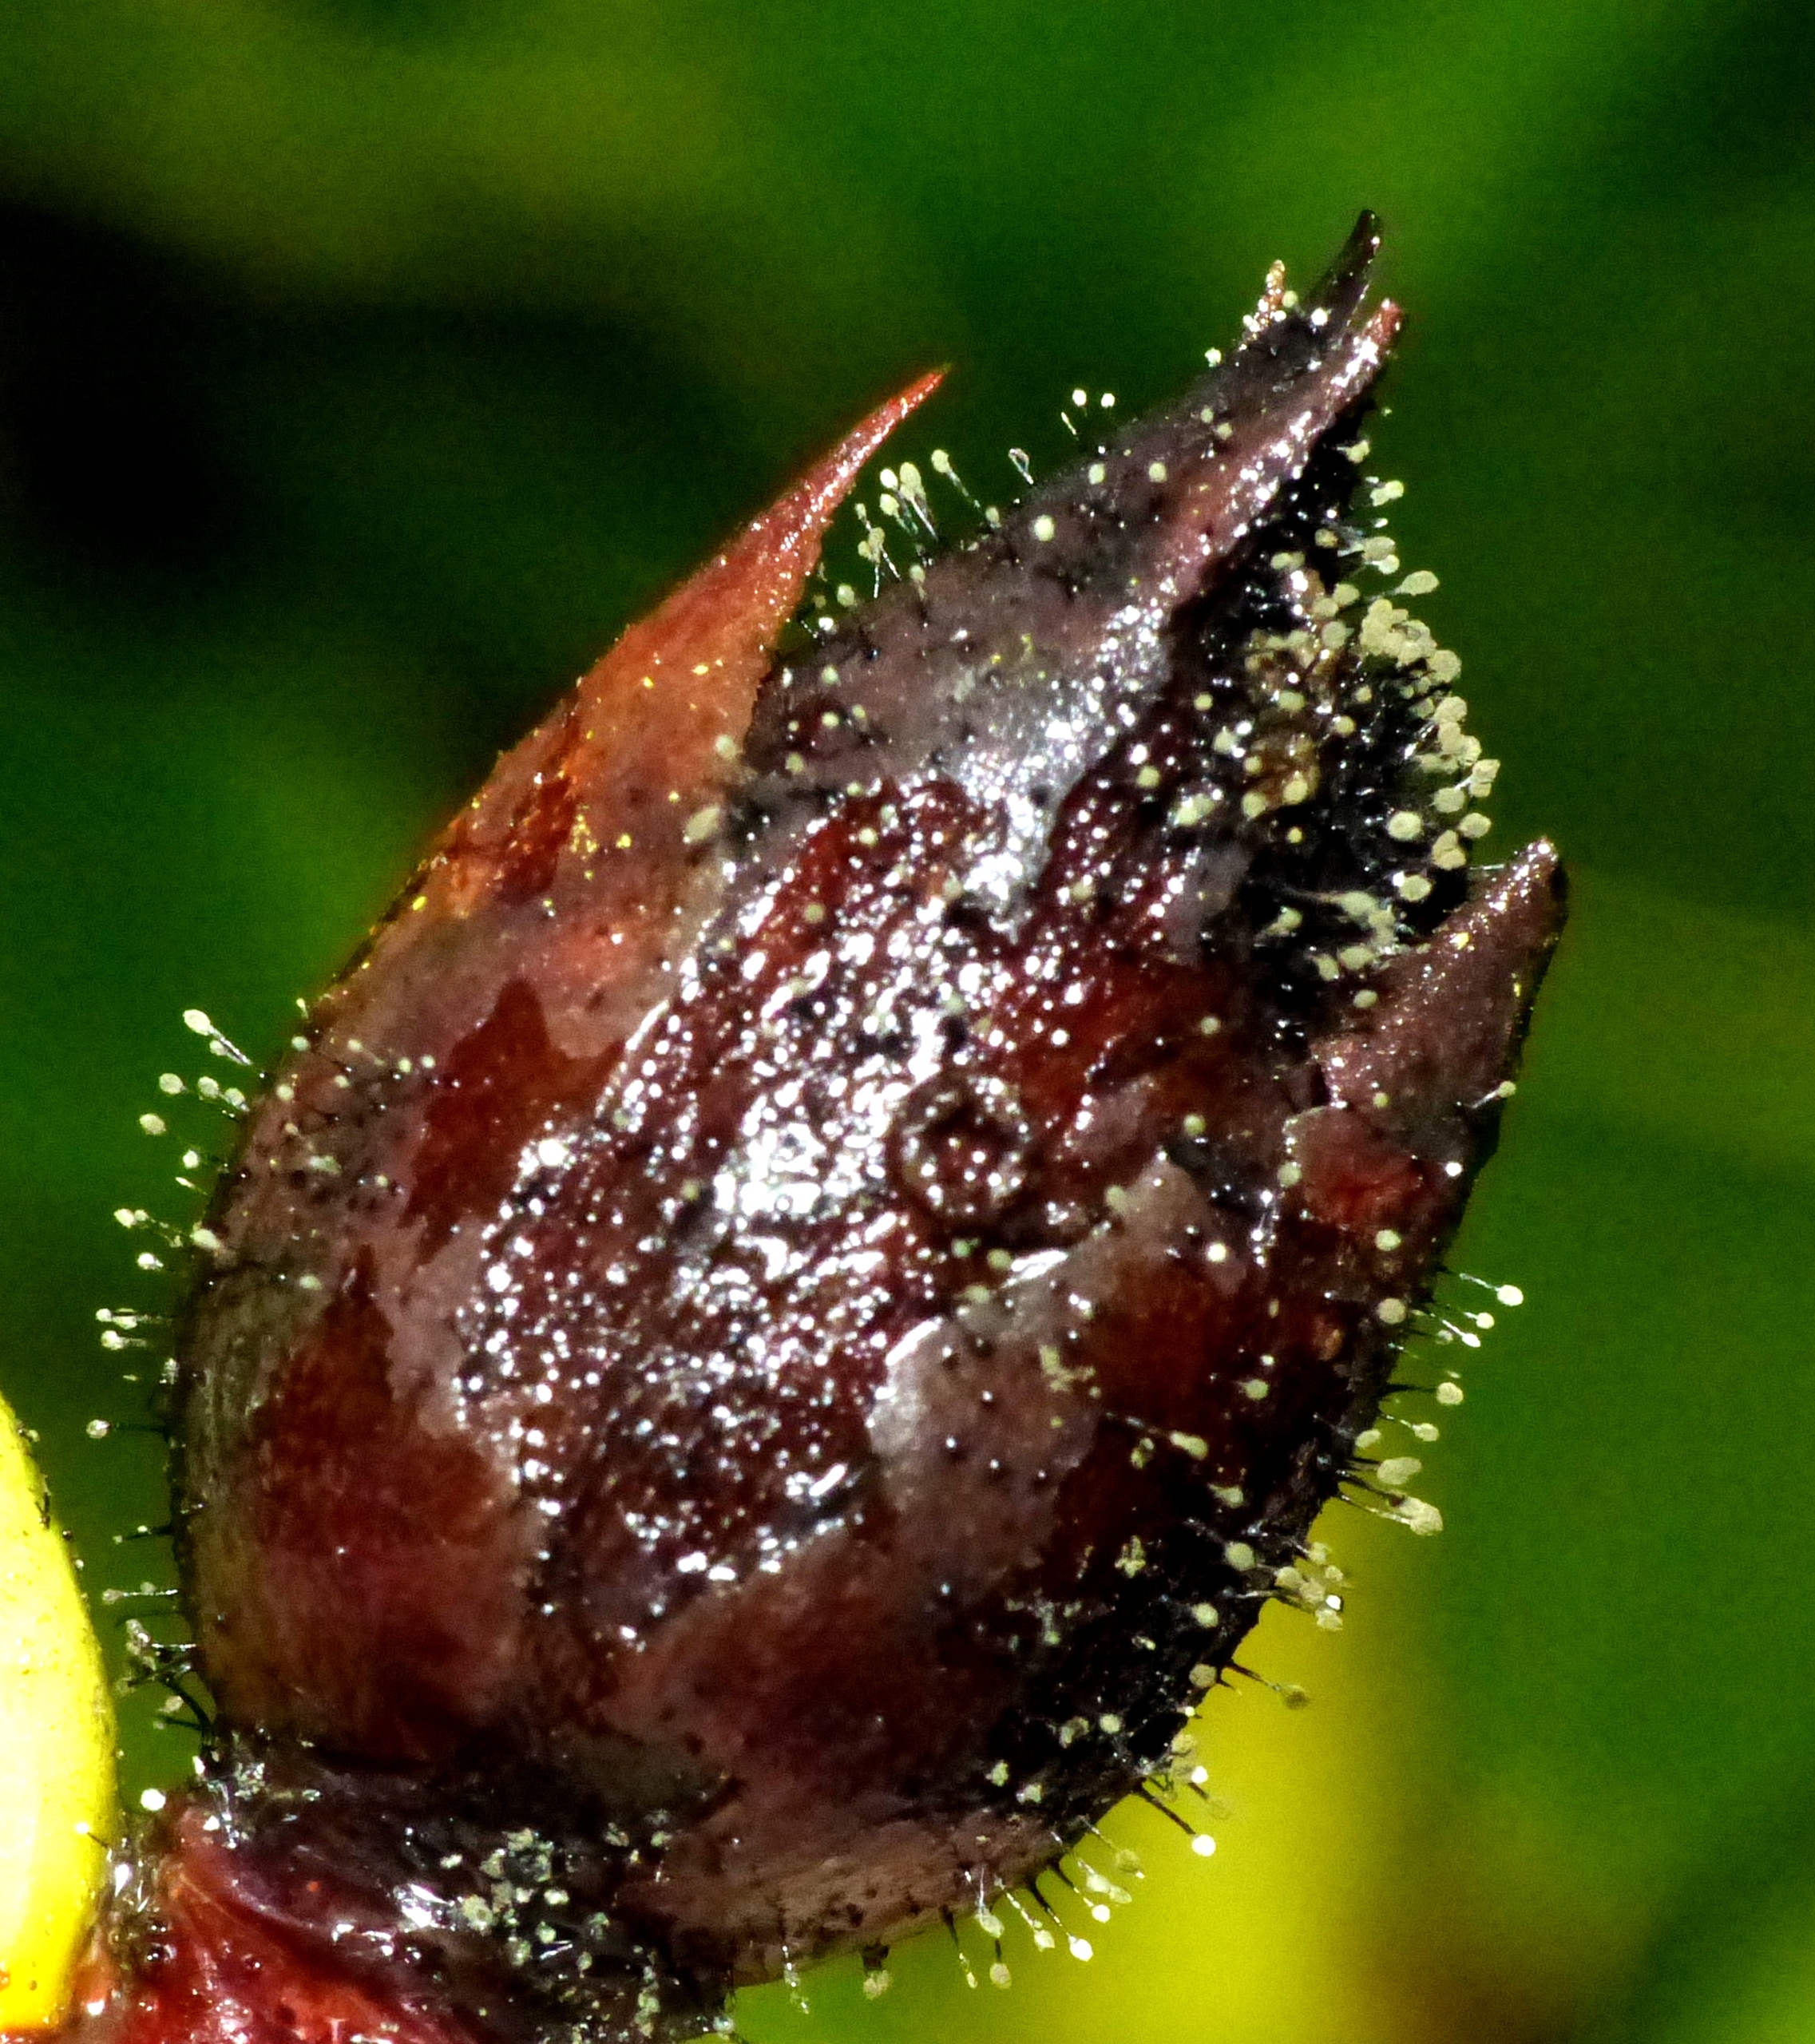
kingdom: Fungi
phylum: Ascomycota
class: Dothideomycetes
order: Pleosporales
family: Melanommataceae
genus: Seifertia
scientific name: Seifertia azaleae
